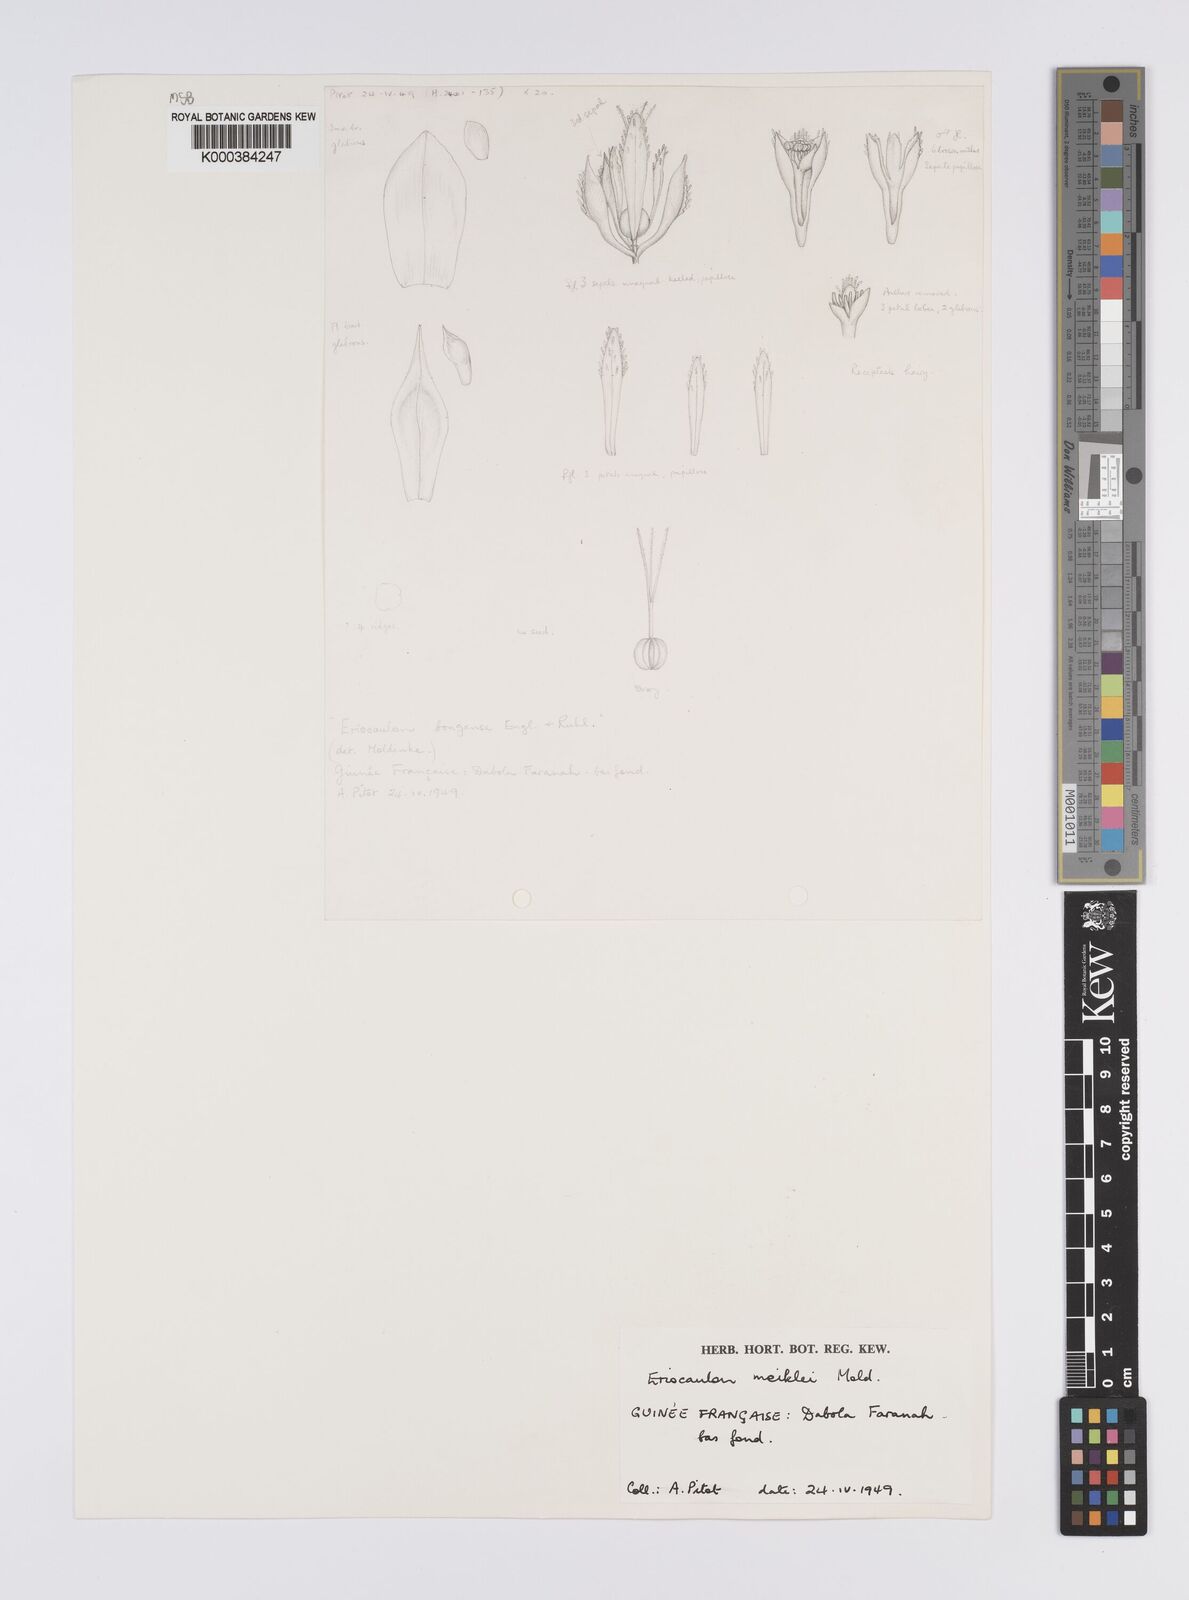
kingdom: Plantae
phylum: Tracheophyta
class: Liliopsida
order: Poales
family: Eriocaulaceae
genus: Eriocaulon
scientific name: Eriocaulon meiklei
